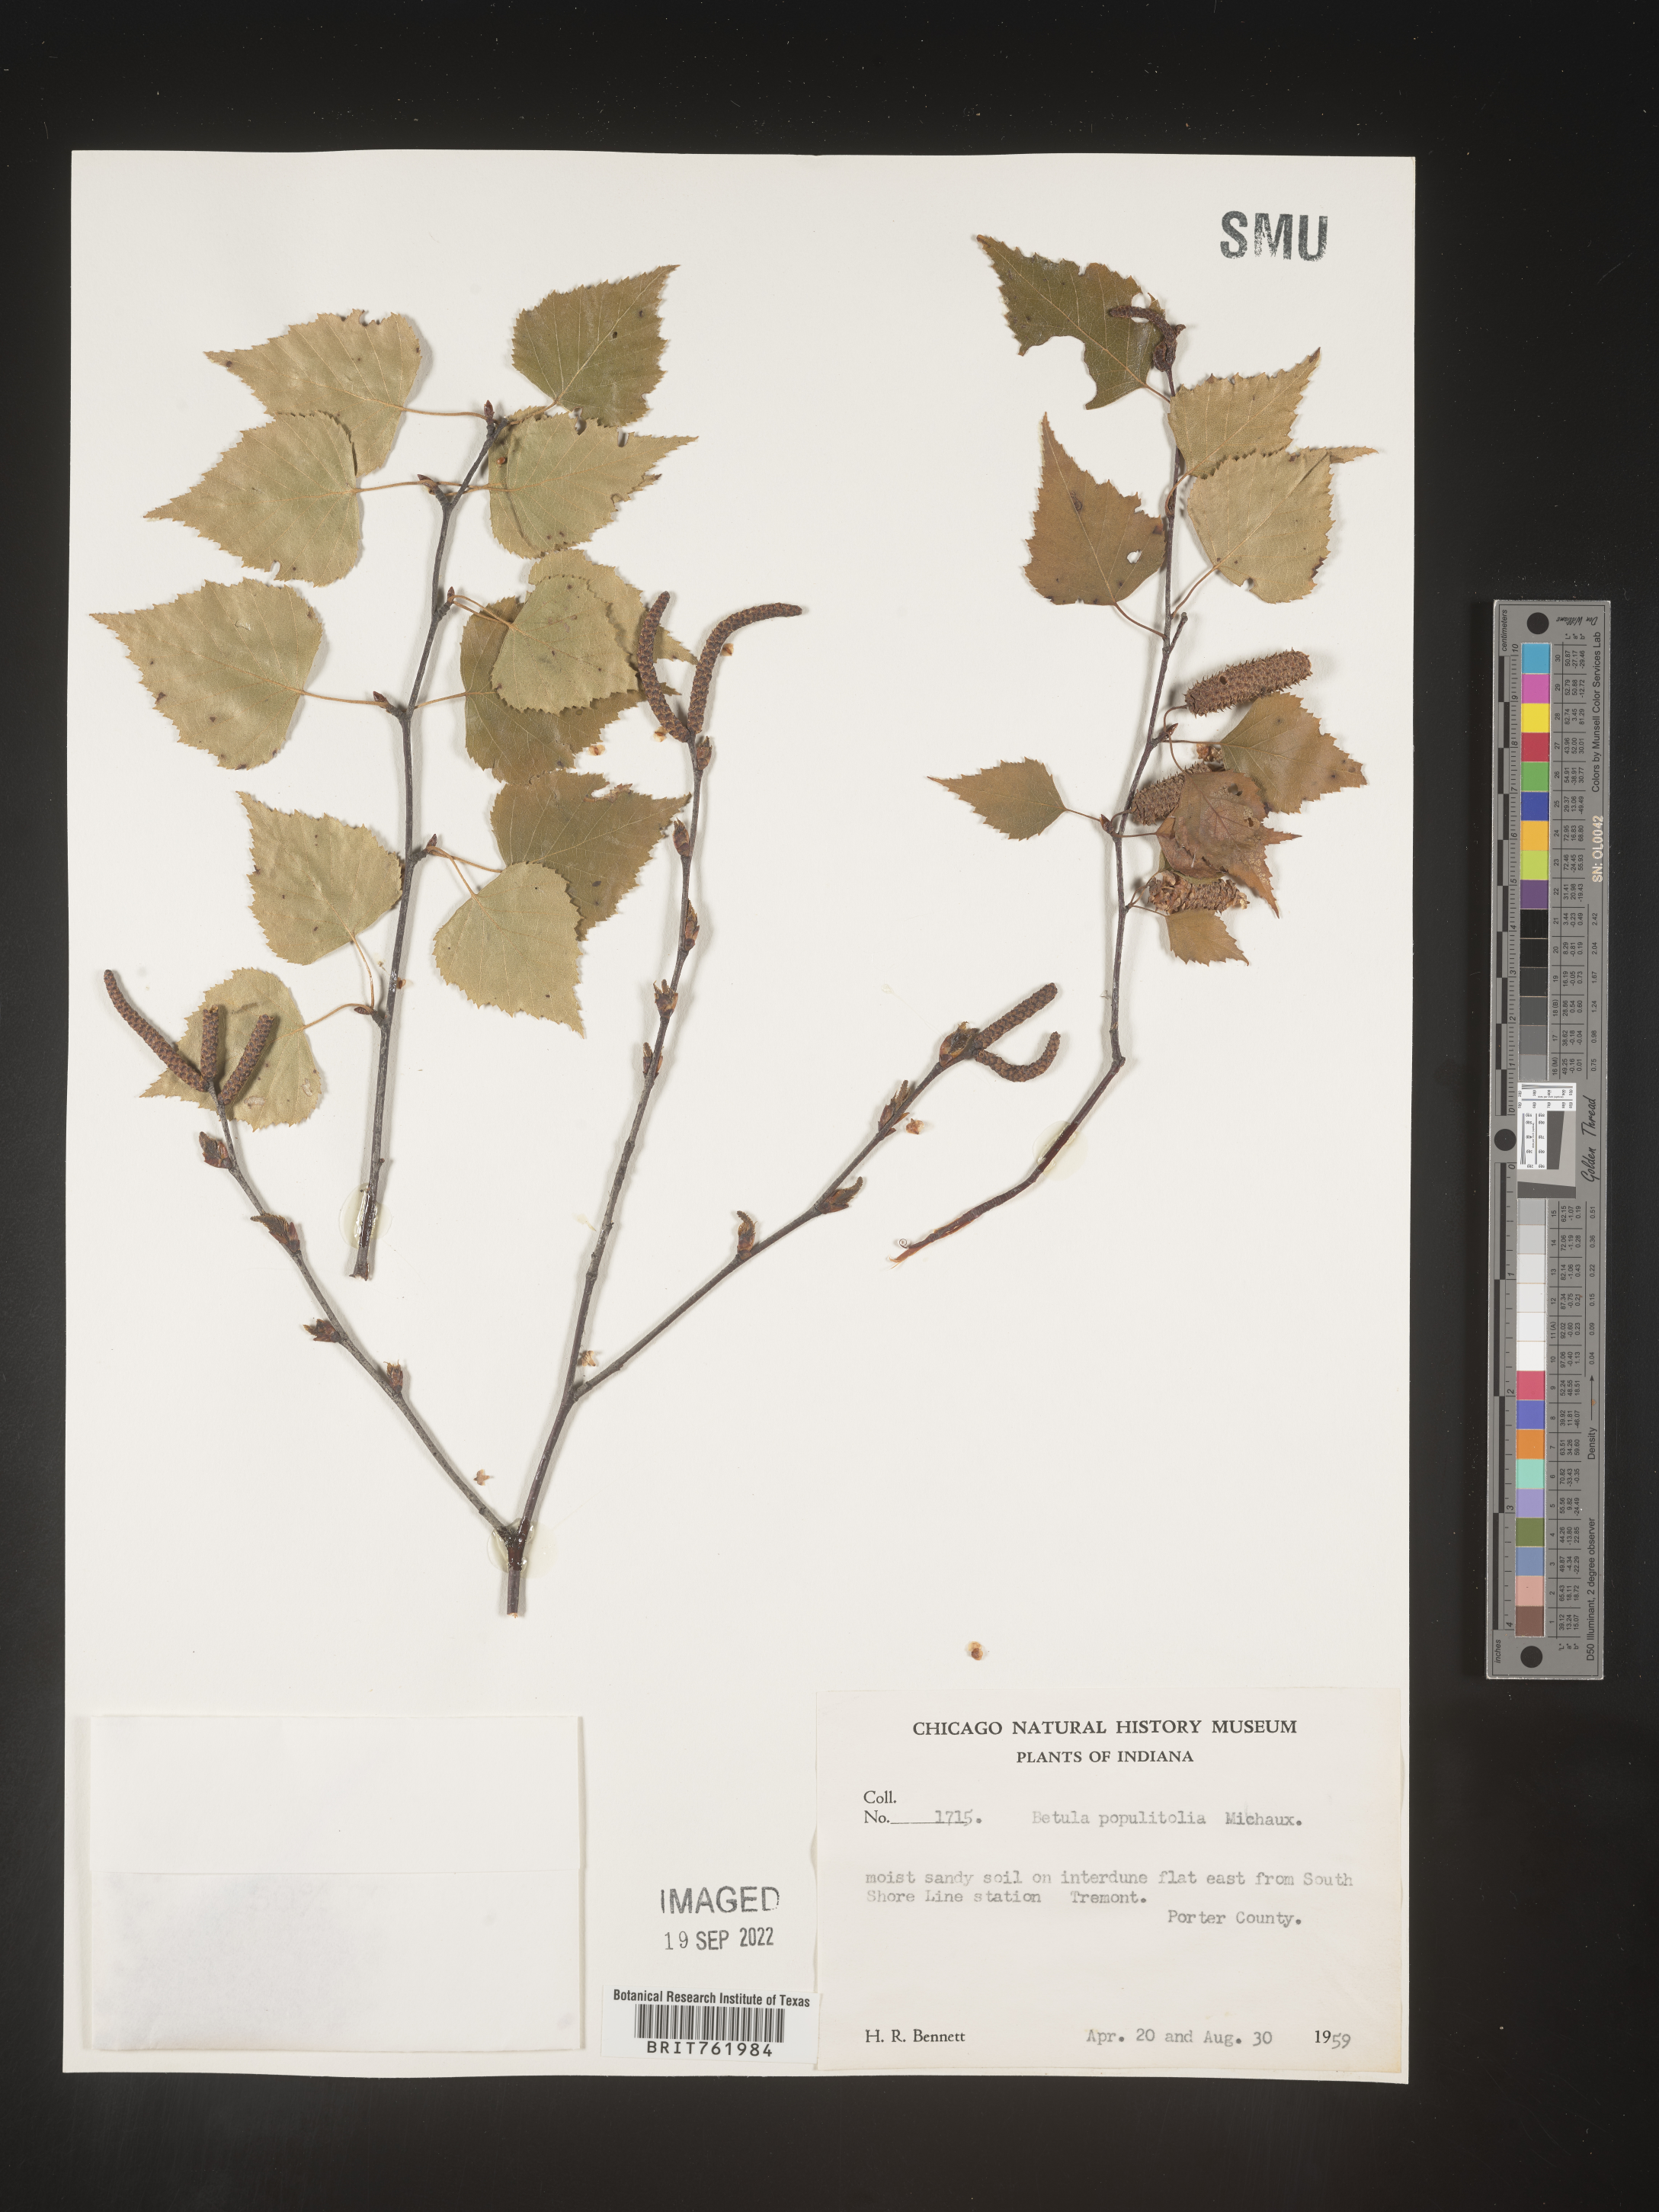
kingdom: Plantae
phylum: Tracheophyta
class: Magnoliopsida
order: Fagales
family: Betulaceae
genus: Betula
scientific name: Betula populifolia
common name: Fire birch
